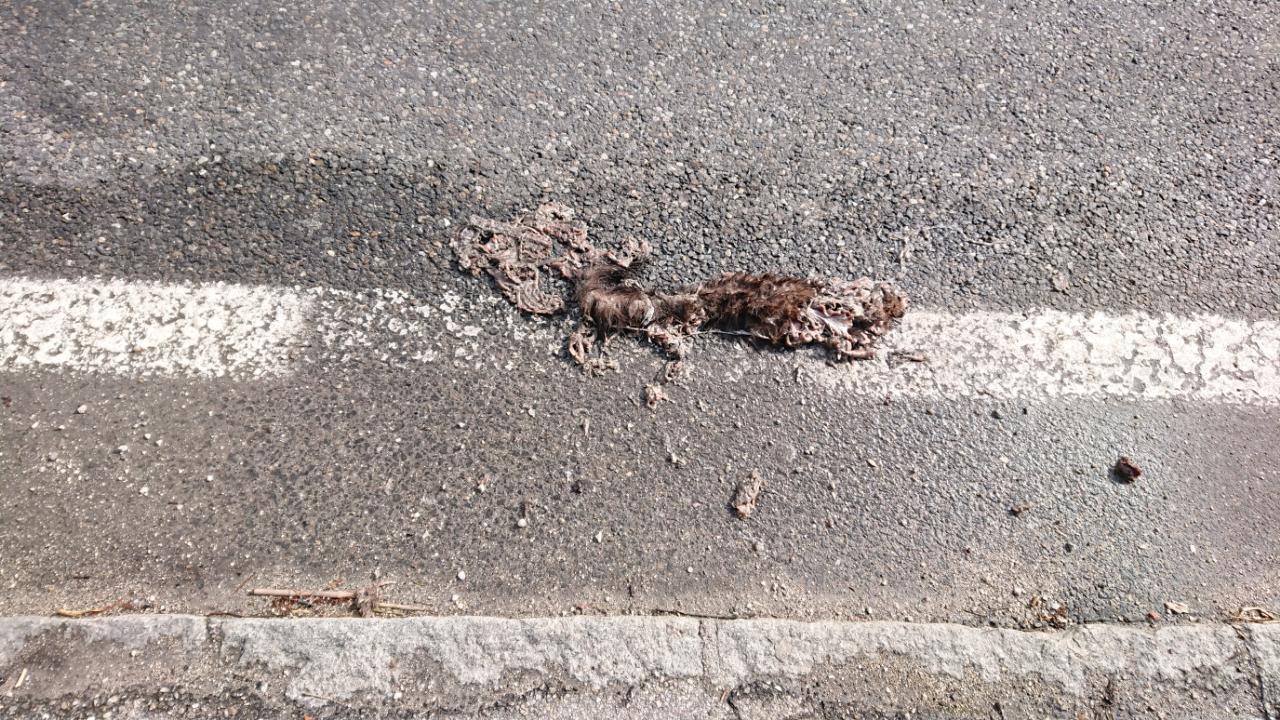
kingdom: Animalia
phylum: Chordata
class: Mammalia
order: Carnivora
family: Mustelidae
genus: Martes
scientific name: Martes foina
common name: Beech marten
